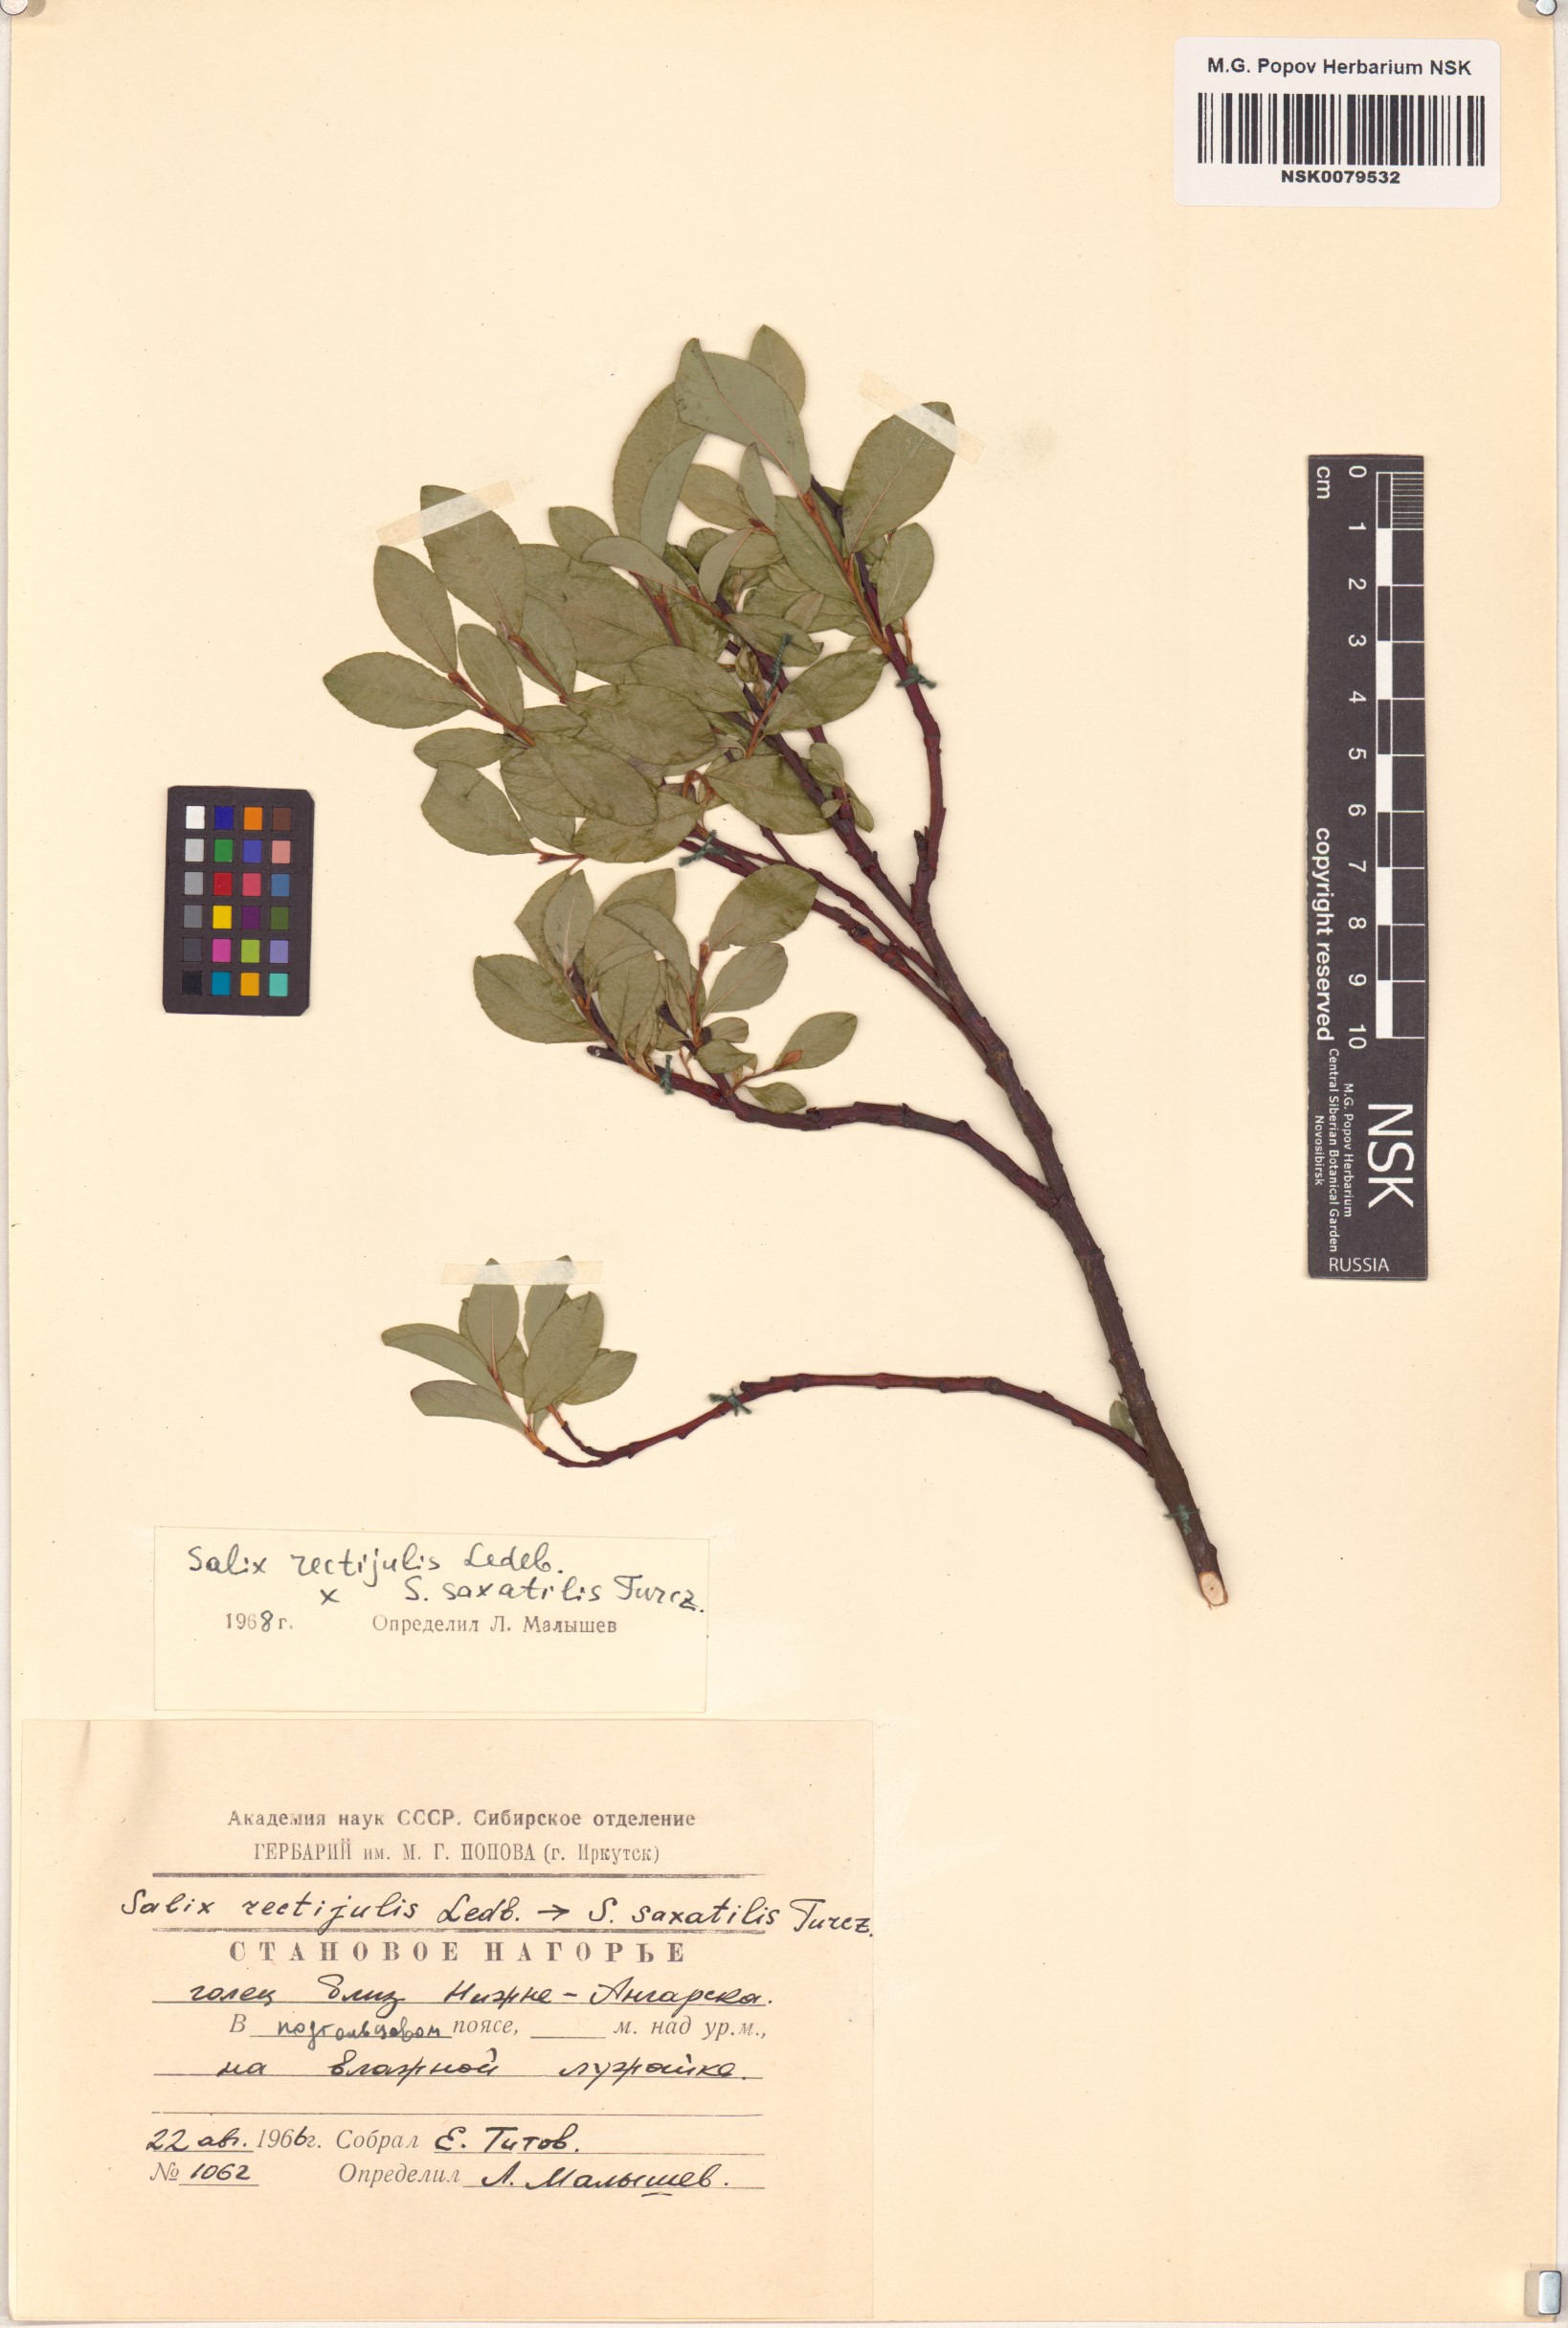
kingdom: Plantae
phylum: Tracheophyta
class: Magnoliopsida
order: Malpighiales
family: Salicaceae
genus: Salix
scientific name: Salix
